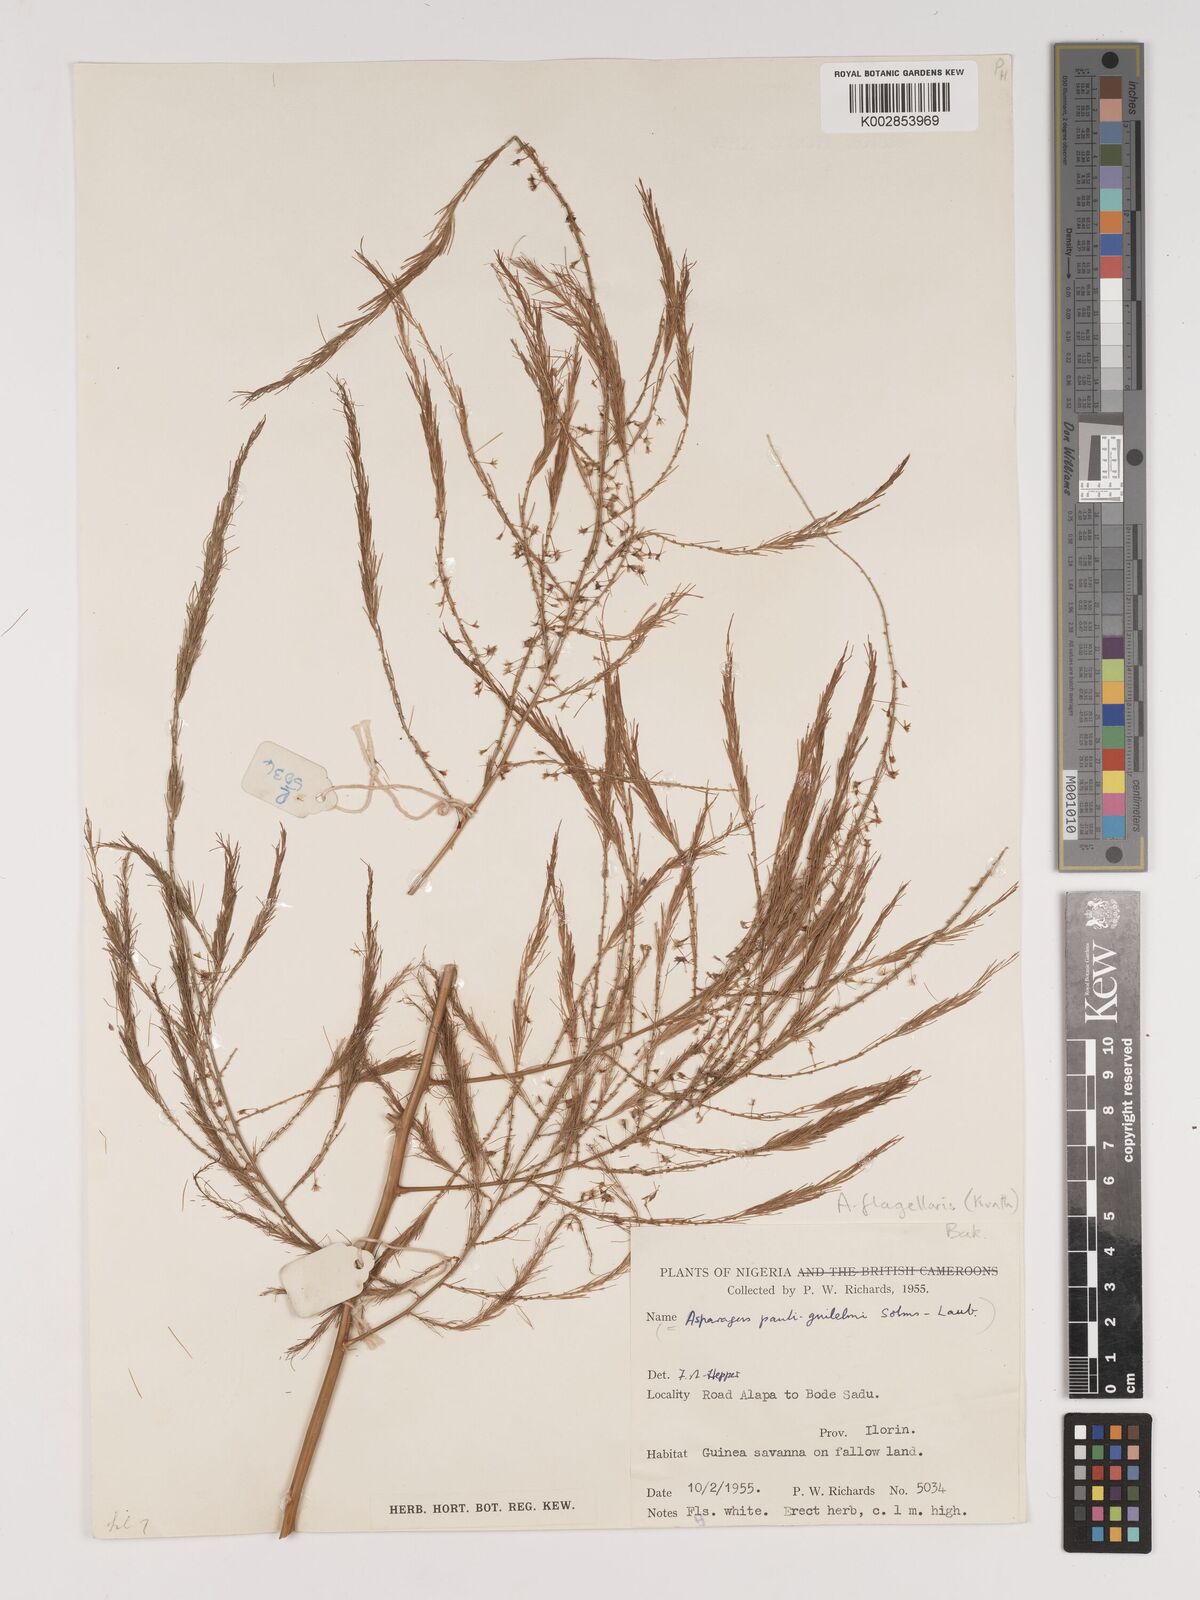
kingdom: Plantae
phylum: Tracheophyta
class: Liliopsida
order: Asparagales
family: Asparagaceae
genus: Asparagus
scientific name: Asparagus flagellaris
